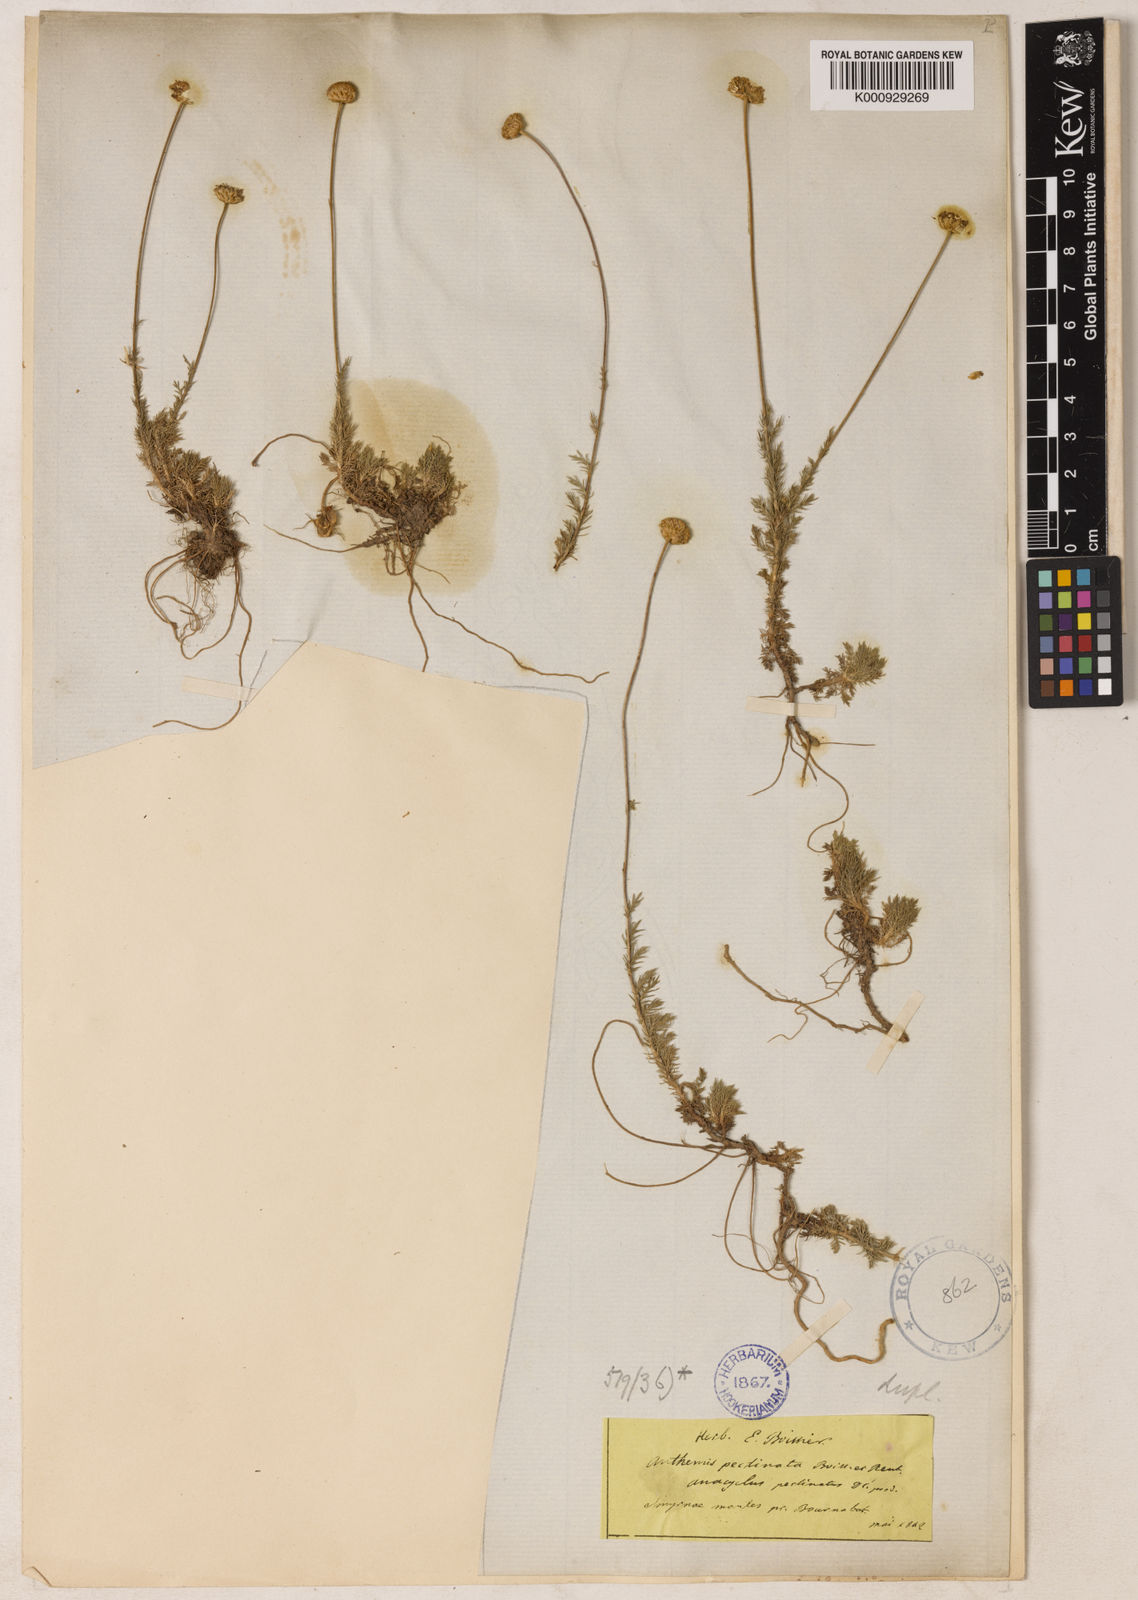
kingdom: Plantae
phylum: Tracheophyta
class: Magnoliopsida
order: Asterales
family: Asteraceae
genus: Anthemis
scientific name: Anthemis orientalis
